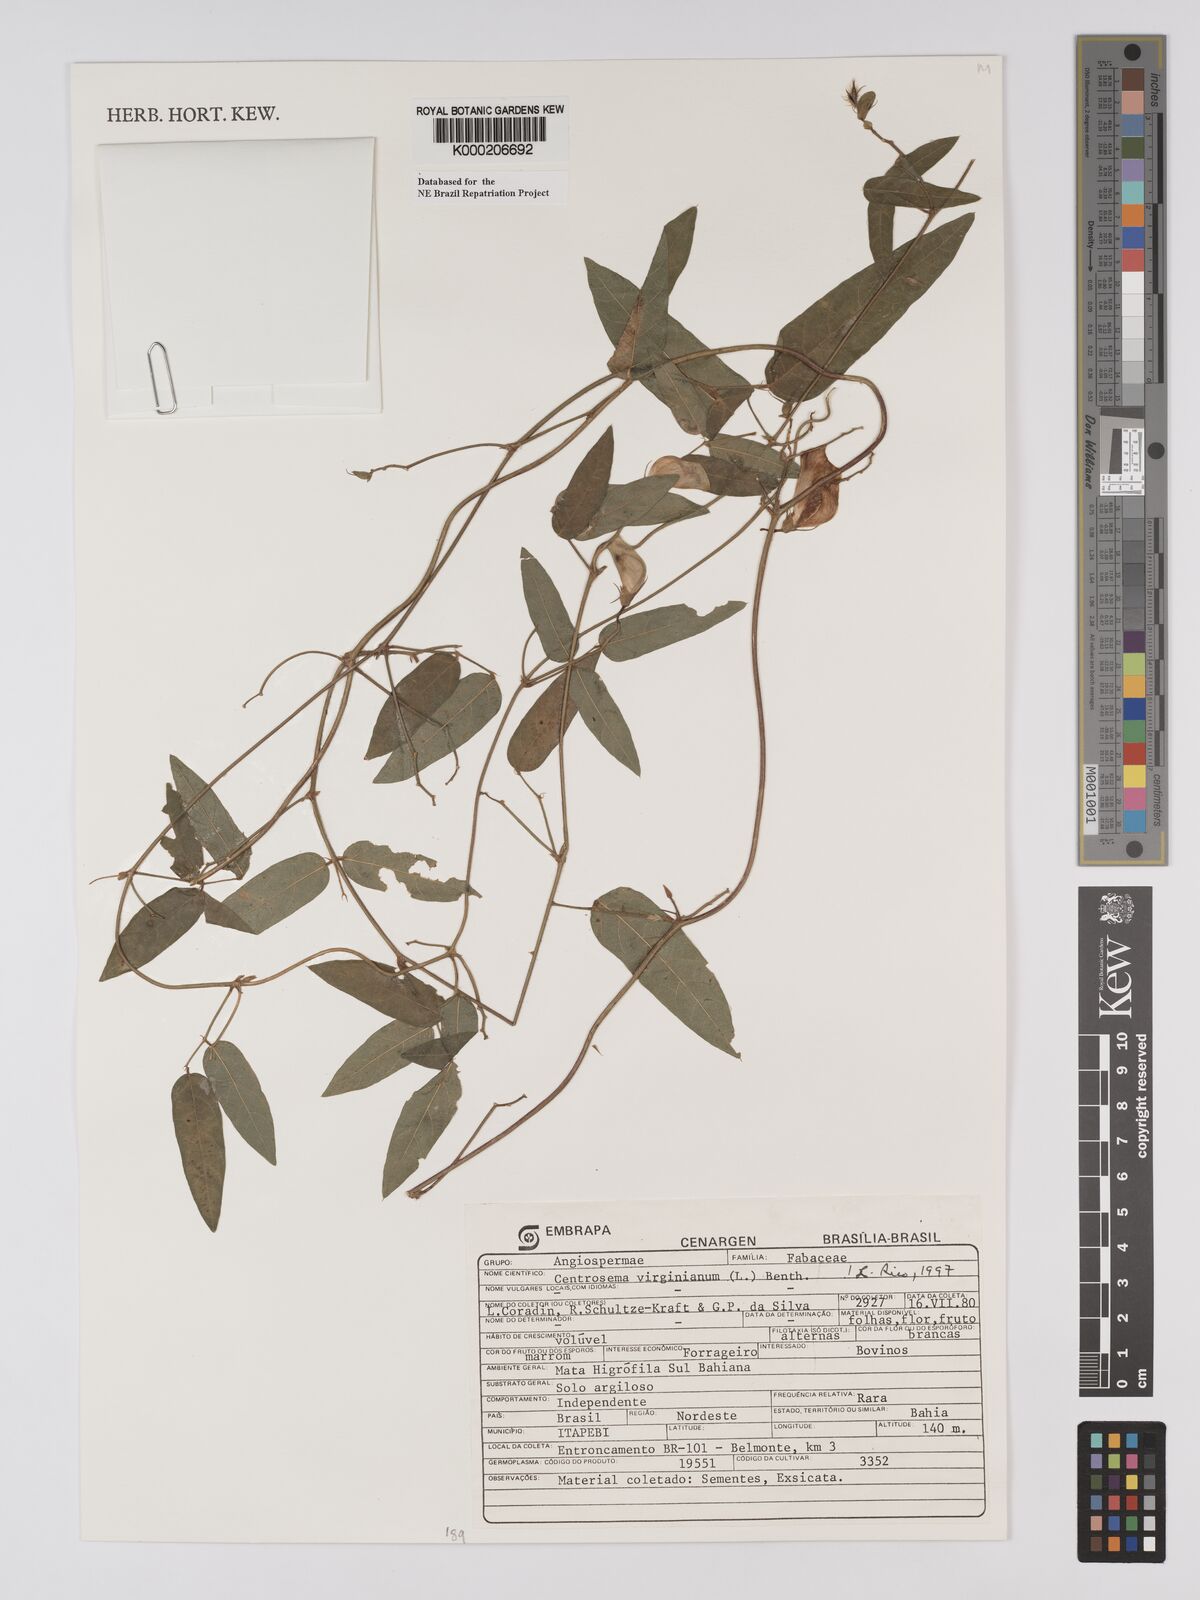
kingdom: Plantae
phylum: Tracheophyta
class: Magnoliopsida
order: Fabales
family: Fabaceae
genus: Centrosema
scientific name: Centrosema virginianum
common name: Butterfly-pea
